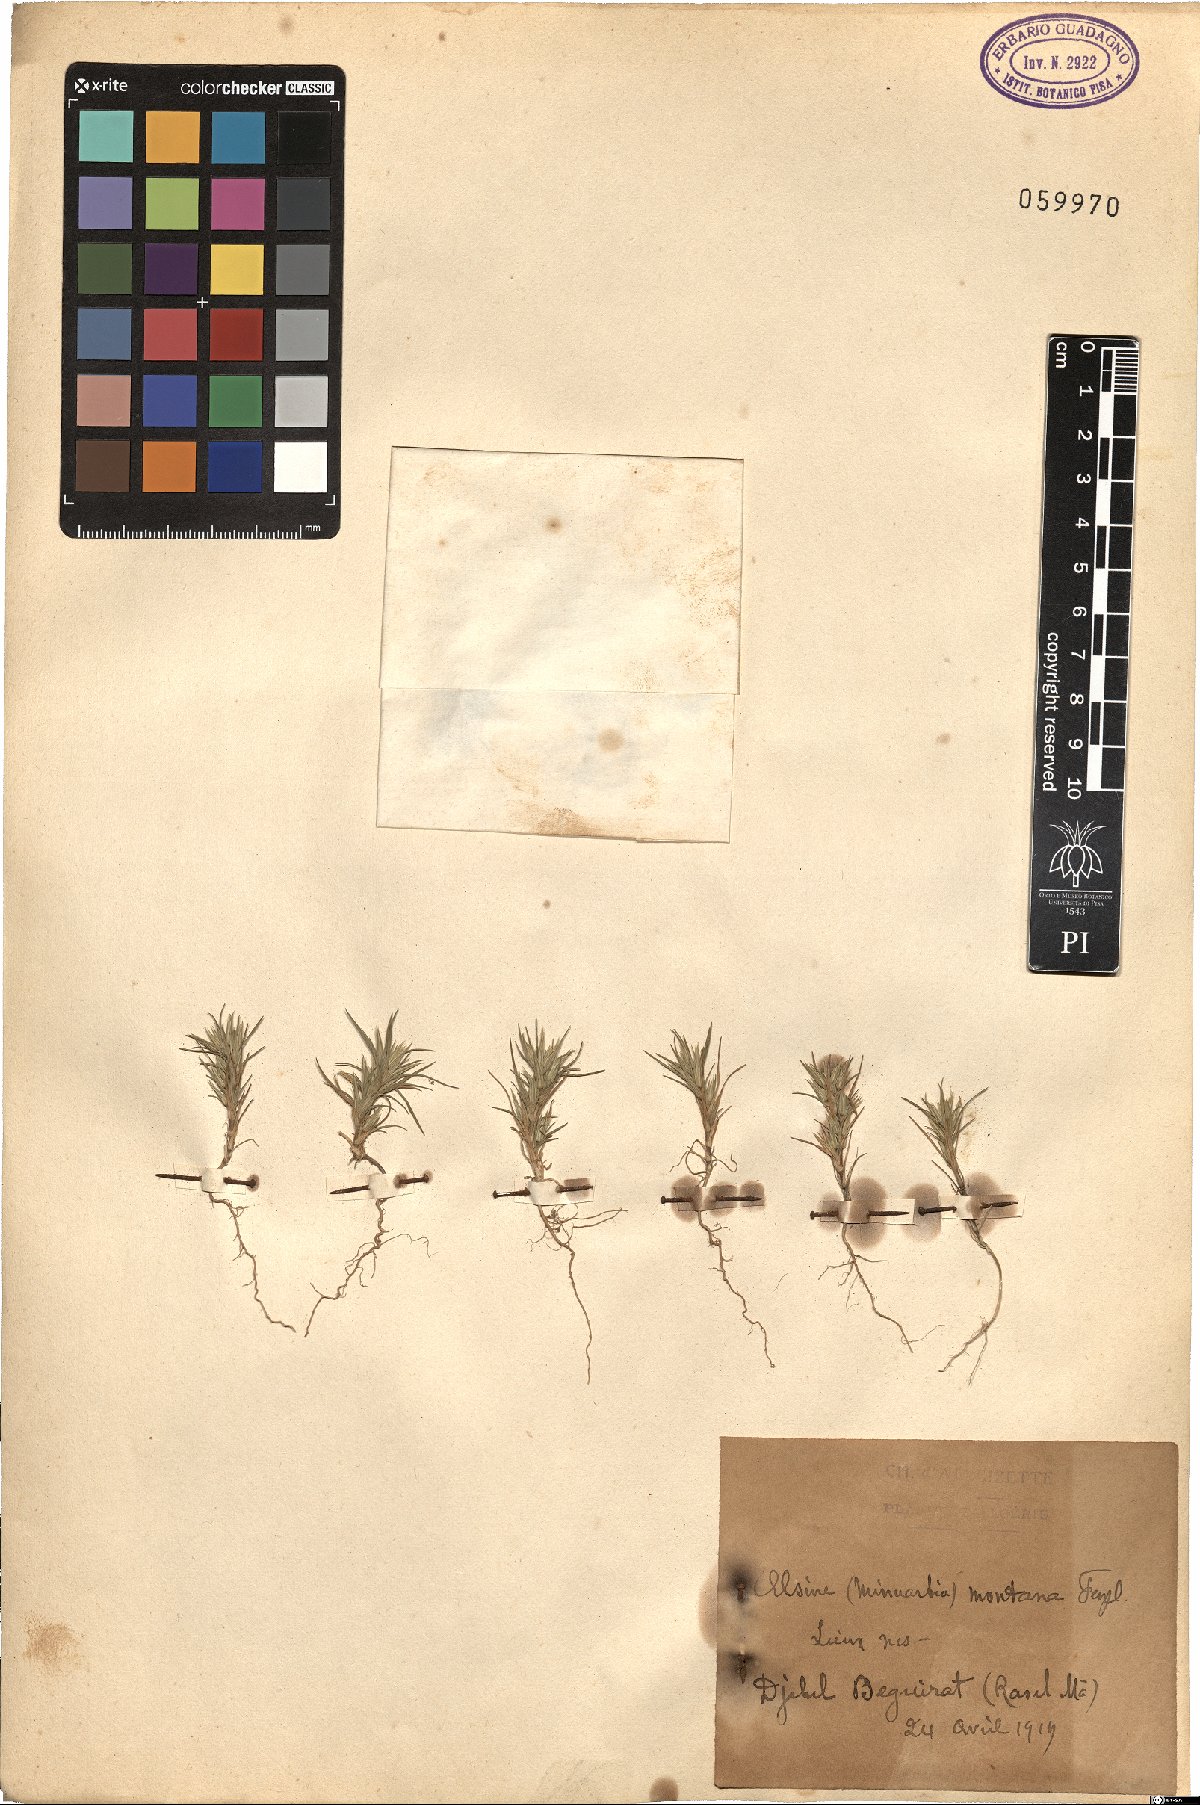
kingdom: Plantae
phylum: Tracheophyta
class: Magnoliopsida
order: Caryophyllales
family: Caryophyllaceae
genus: Minuartia
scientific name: Minuartia montana
